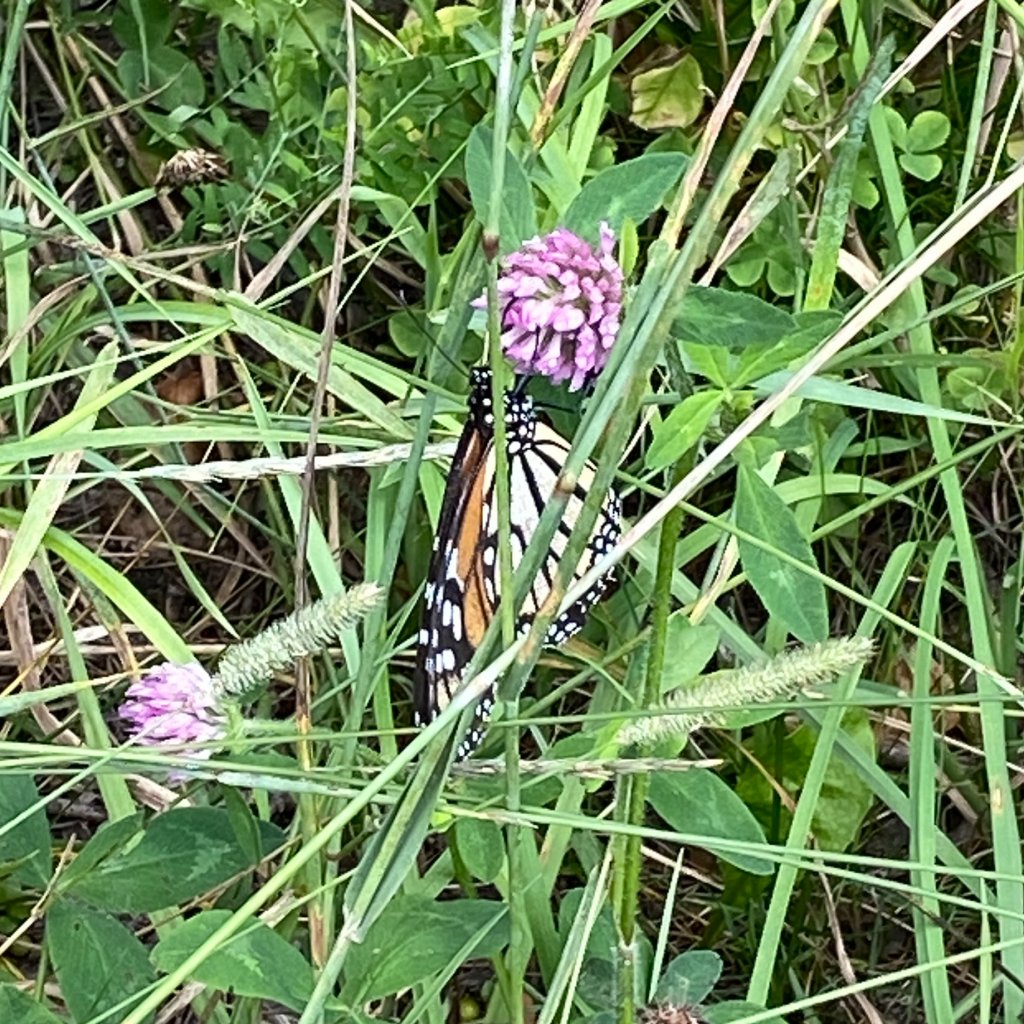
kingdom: Animalia
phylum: Arthropoda
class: Insecta
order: Lepidoptera
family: Nymphalidae
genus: Danaus
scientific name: Danaus plexippus
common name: Monarch
